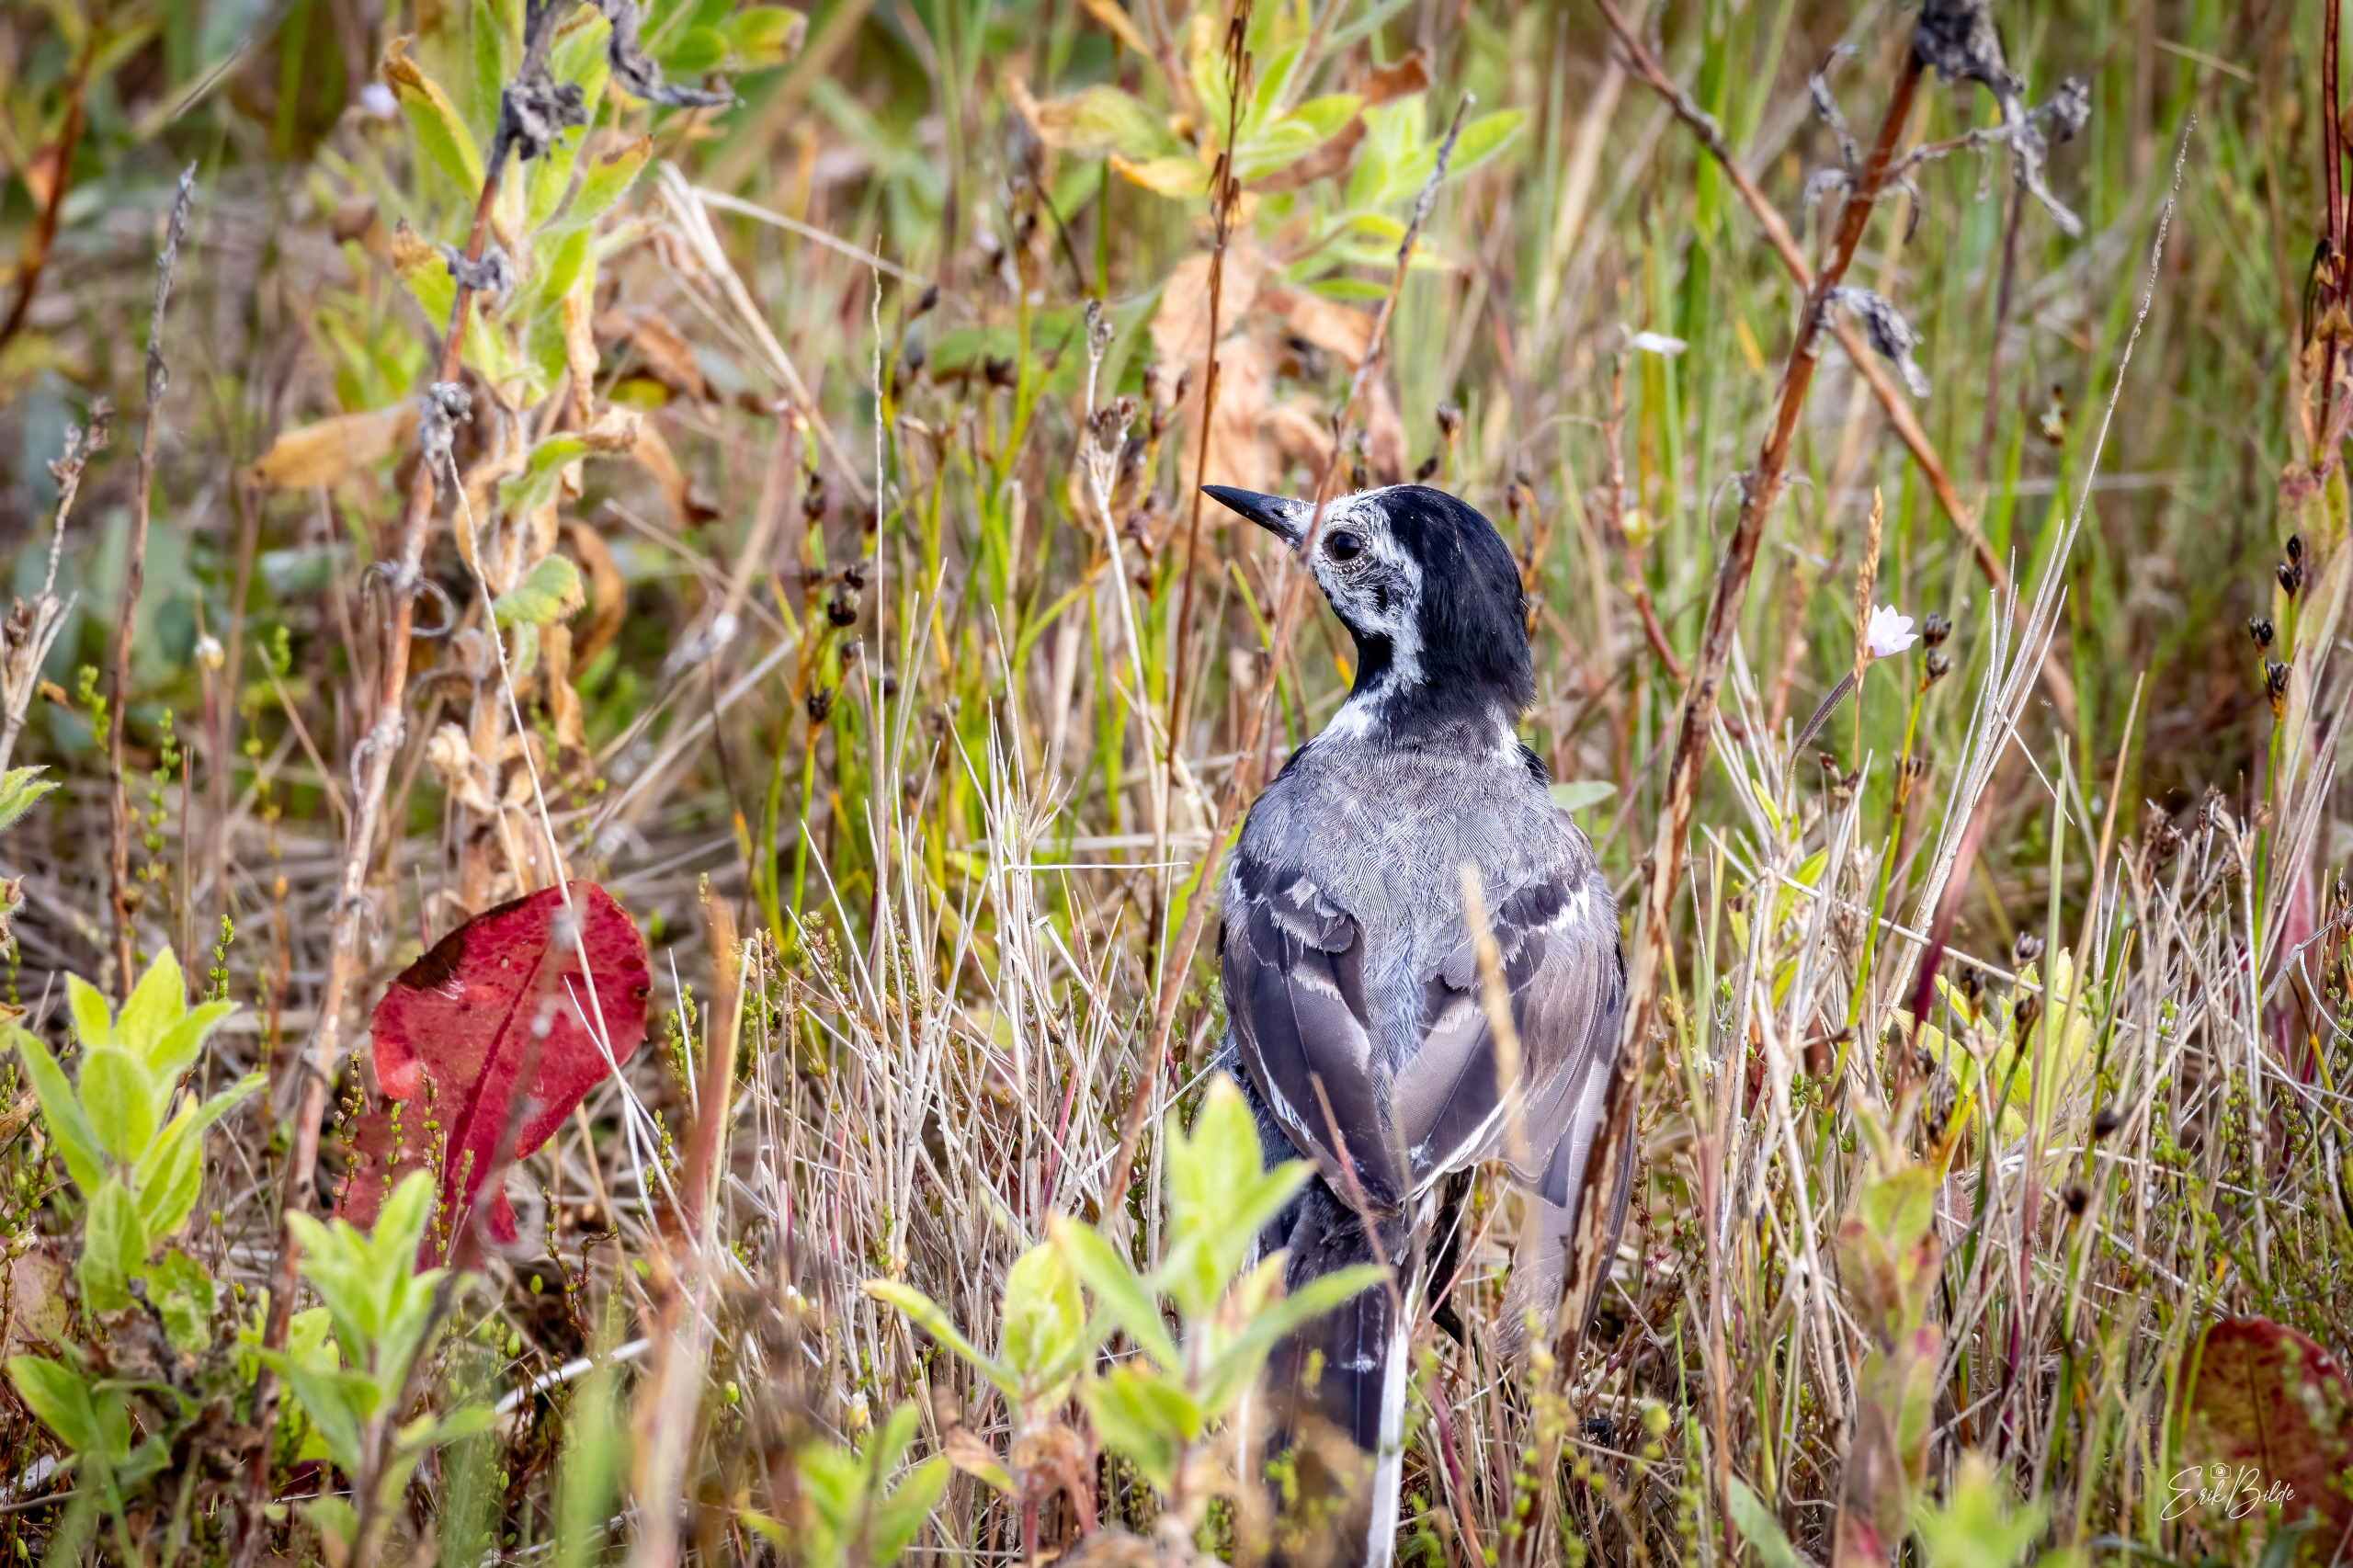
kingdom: Animalia
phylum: Chordata
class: Aves
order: Passeriformes
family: Motacillidae
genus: Motacilla
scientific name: Motacilla alba
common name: Hvid vipstjert
